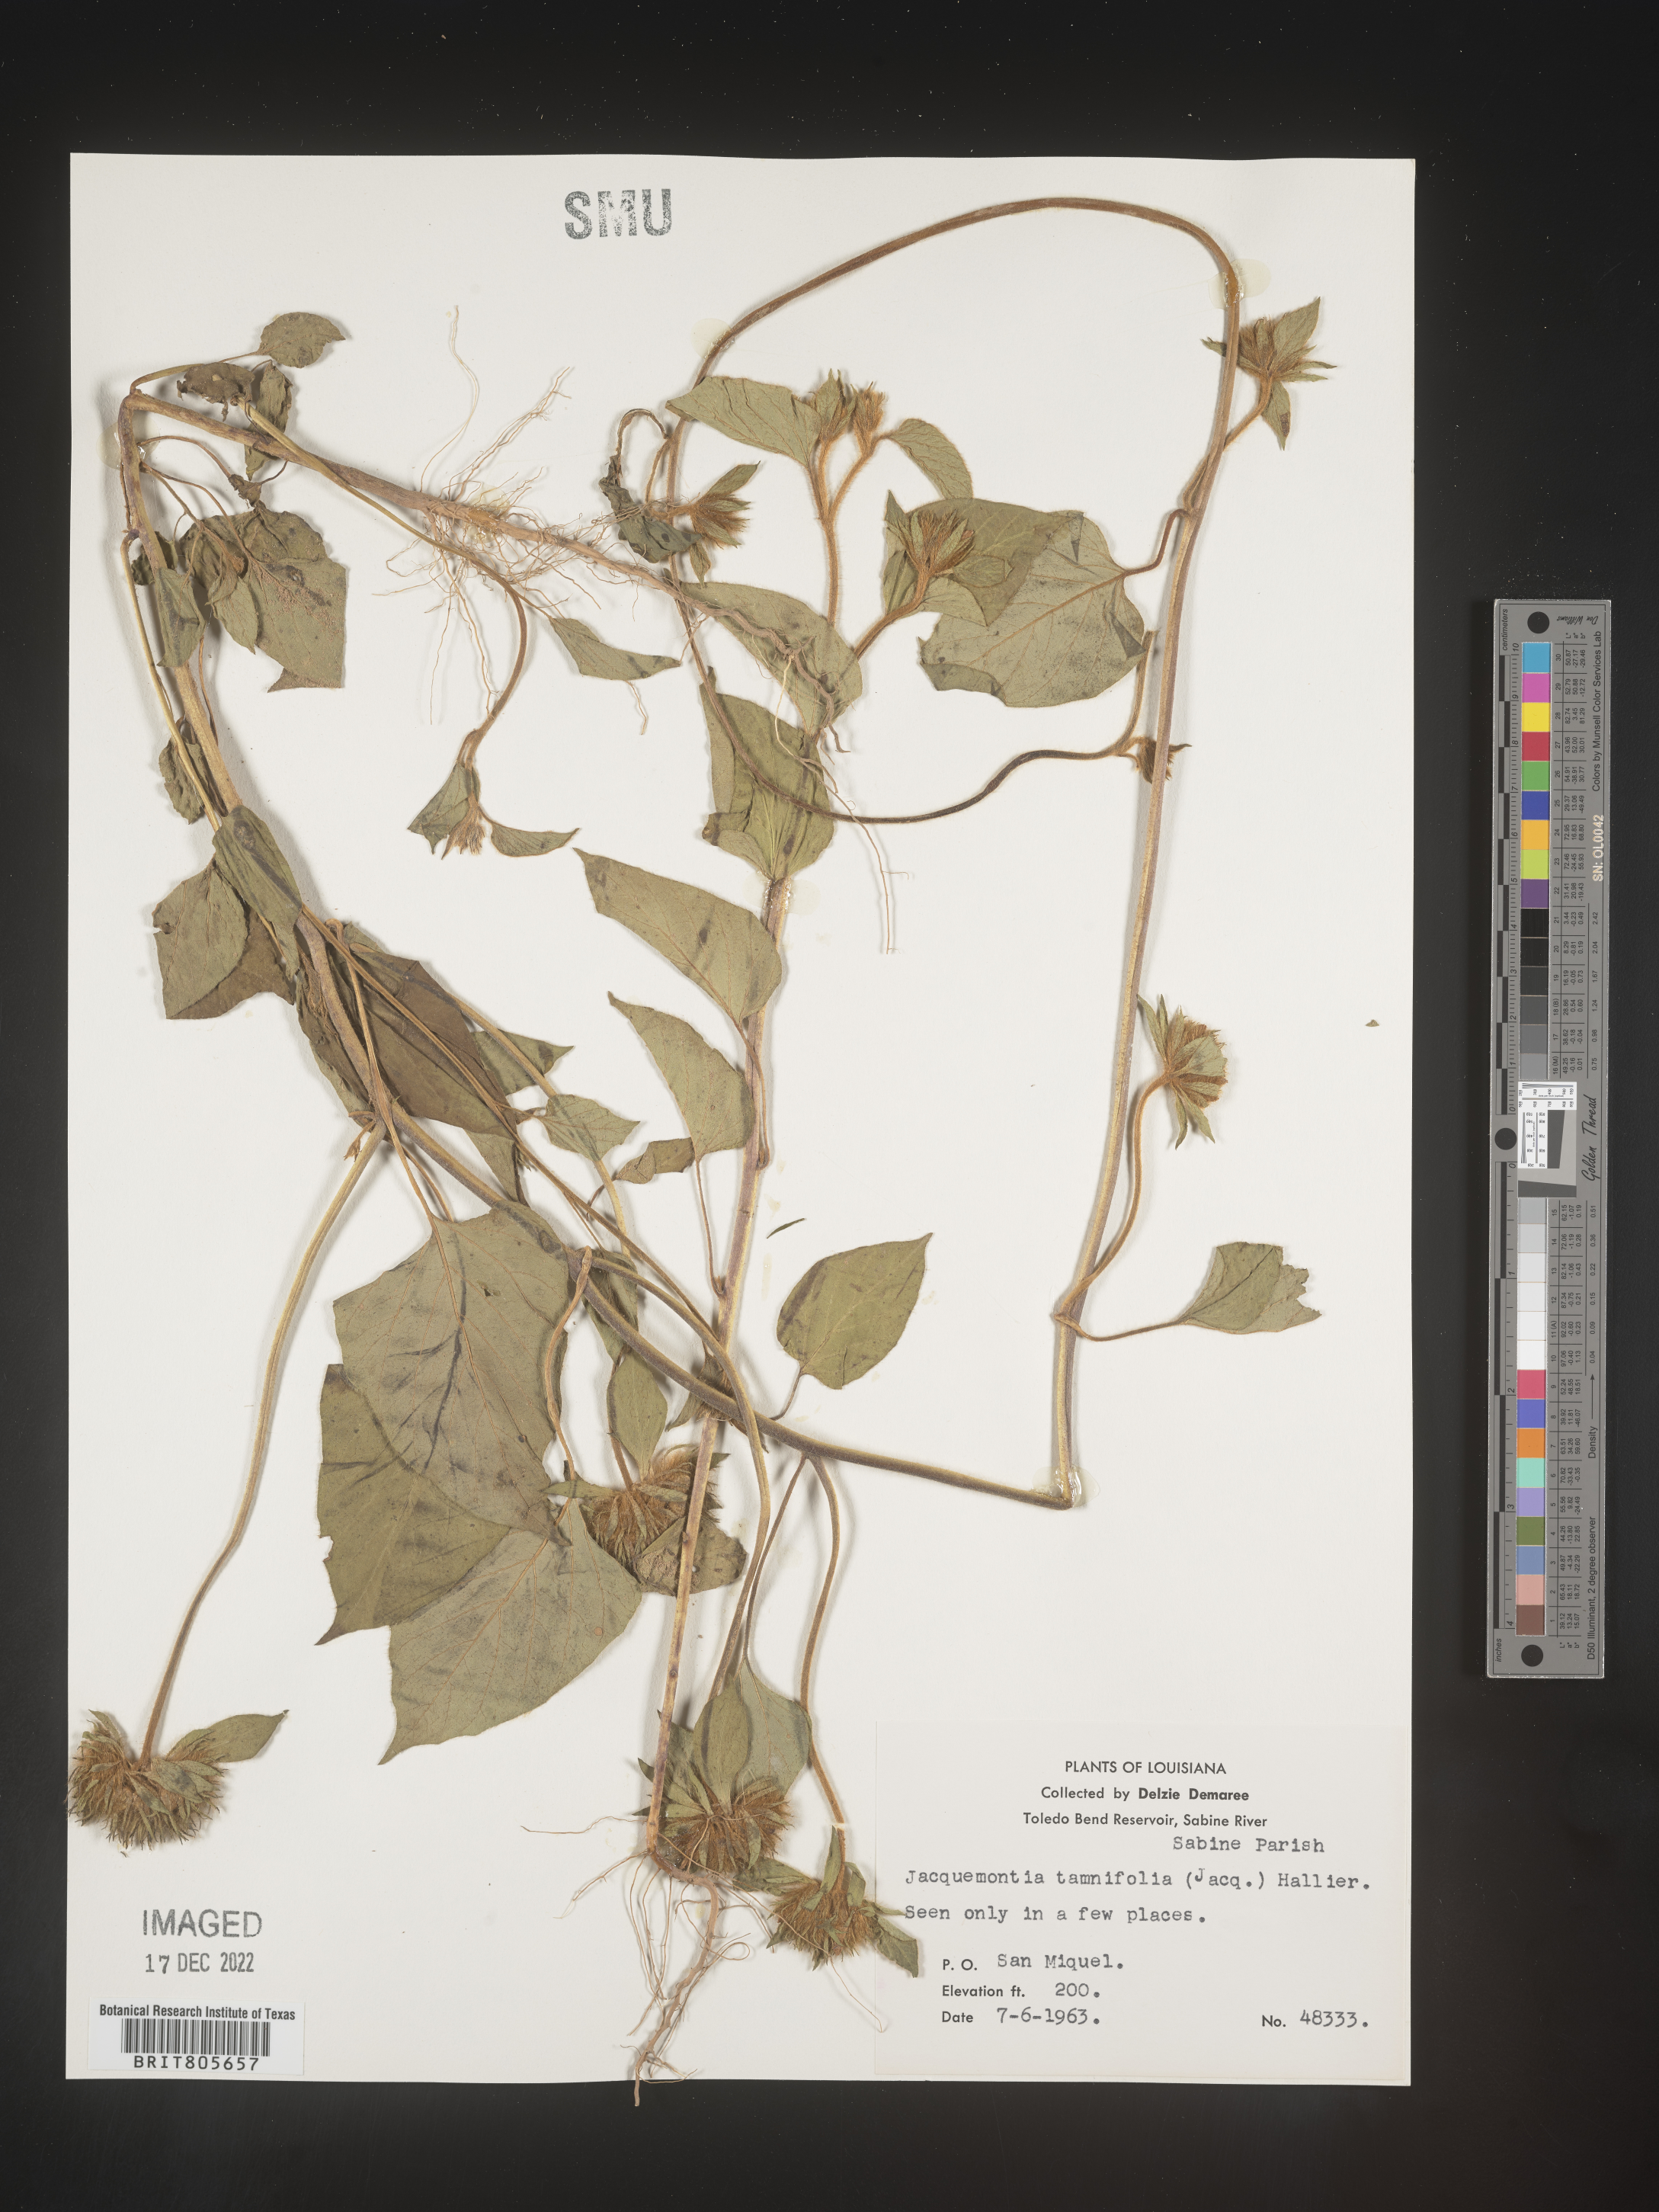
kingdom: Plantae
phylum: Tracheophyta
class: Magnoliopsida
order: Solanales
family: Convolvulaceae
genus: Jacquemontia
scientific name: Jacquemontia tamnifolia
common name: Hairy clustervine
